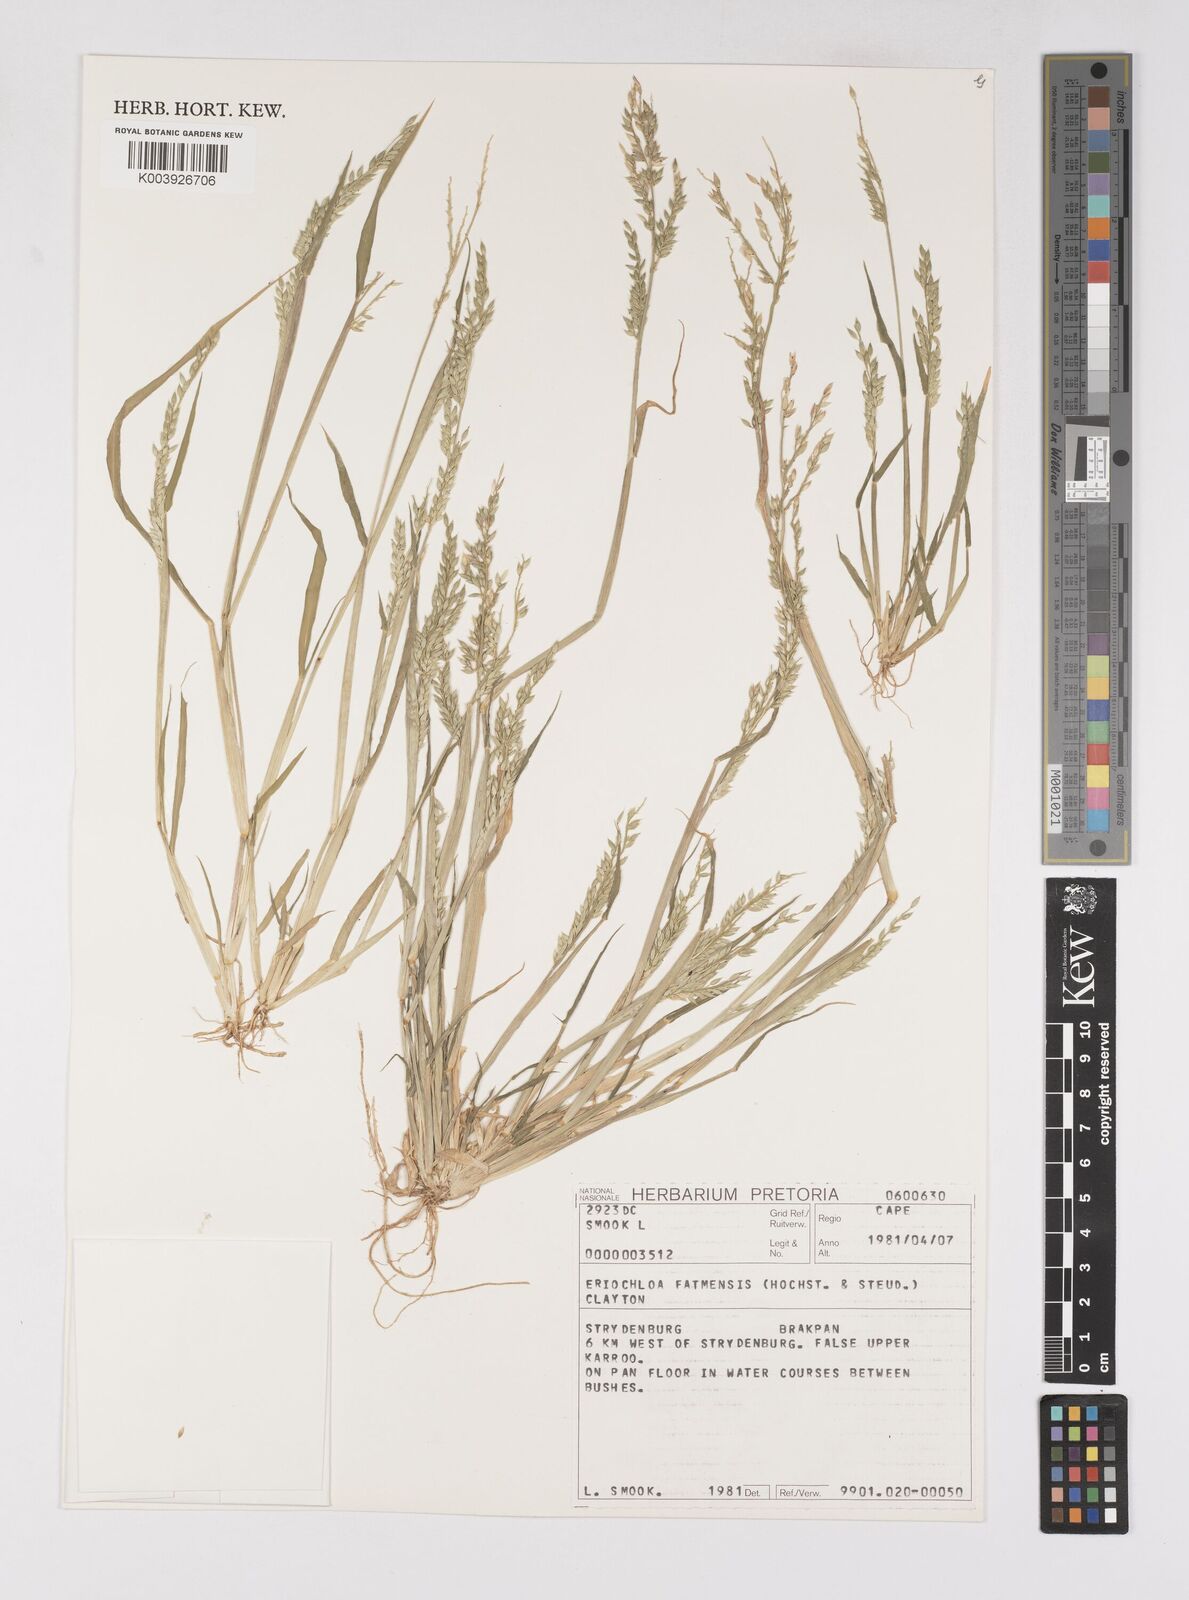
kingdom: Plantae
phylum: Tracheophyta
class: Liliopsida
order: Poales
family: Poaceae
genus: Eriochloa
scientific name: Eriochloa barbatus
